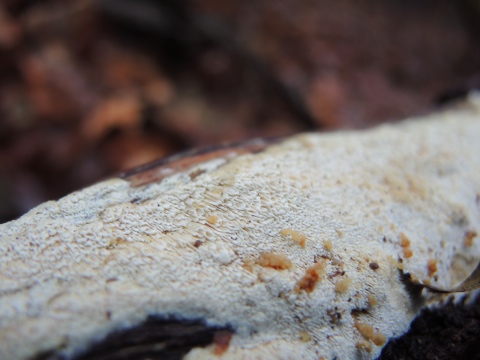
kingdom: Fungi
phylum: Basidiomycota
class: Agaricomycetes
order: Hymenochaetales
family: Schizoporaceae
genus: Xylodon
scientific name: Xylodon subtropicus
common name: labyrint-tandsvamp
